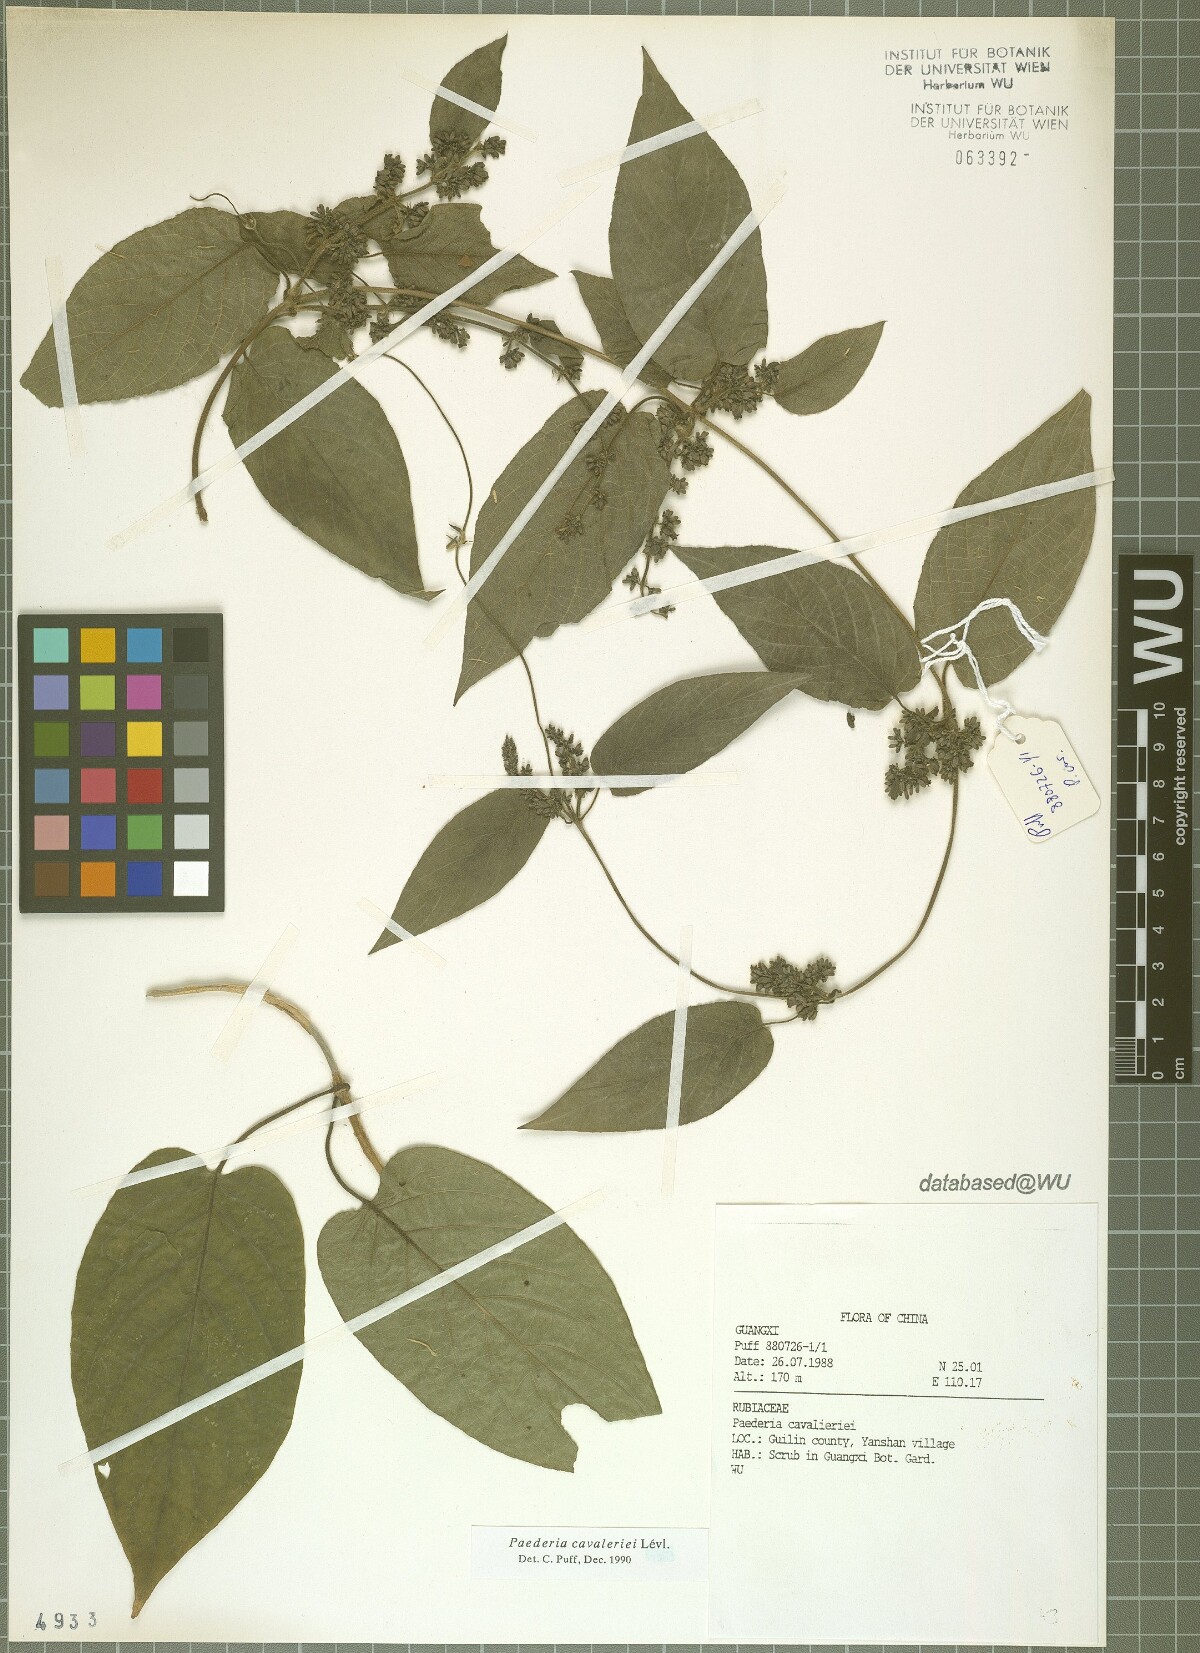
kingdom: Plantae
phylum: Tracheophyta
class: Magnoliopsida
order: Gentianales
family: Rubiaceae
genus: Paederia
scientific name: Paederia cavaleriei
